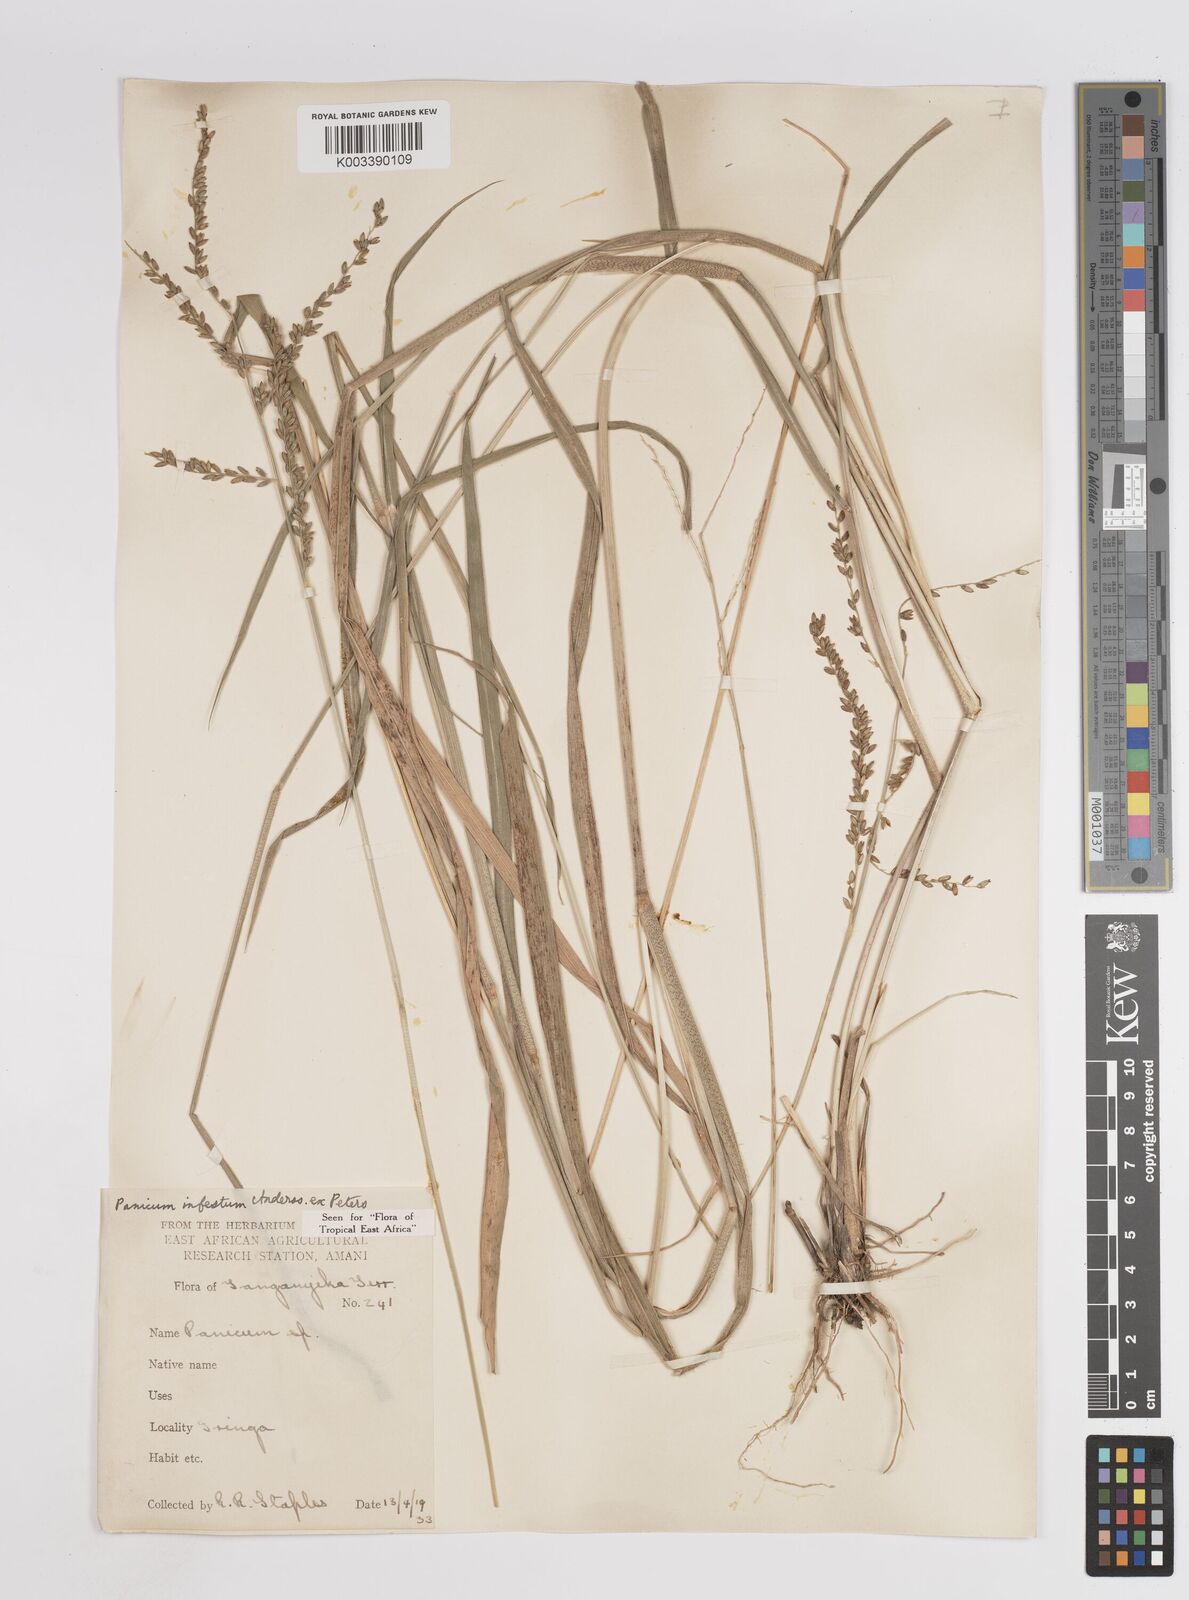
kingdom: Plantae
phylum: Tracheophyta
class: Liliopsida
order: Poales
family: Poaceae
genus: Megathyrsus
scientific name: Megathyrsus infestus
